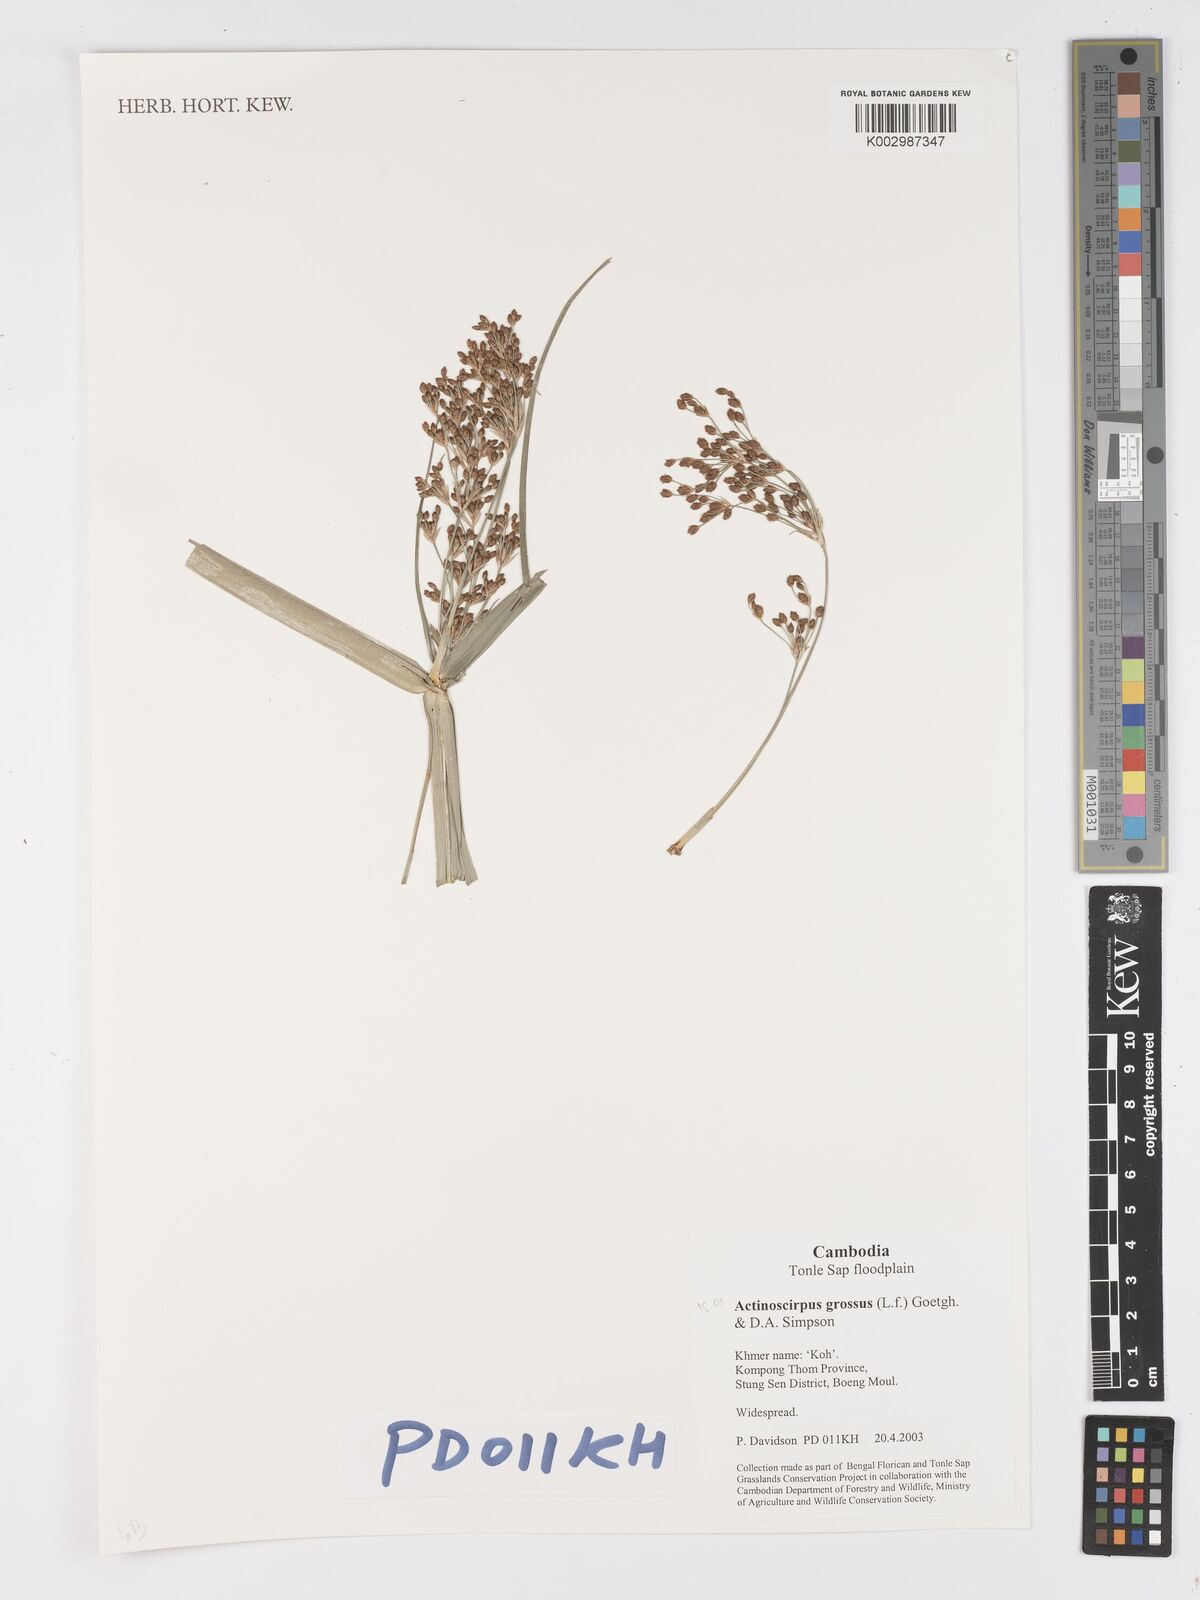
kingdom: Plantae
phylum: Tracheophyta
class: Liliopsida
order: Poales
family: Cyperaceae
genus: Actinoscirpus
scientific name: Actinoscirpus grossus
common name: Giant bur rush
